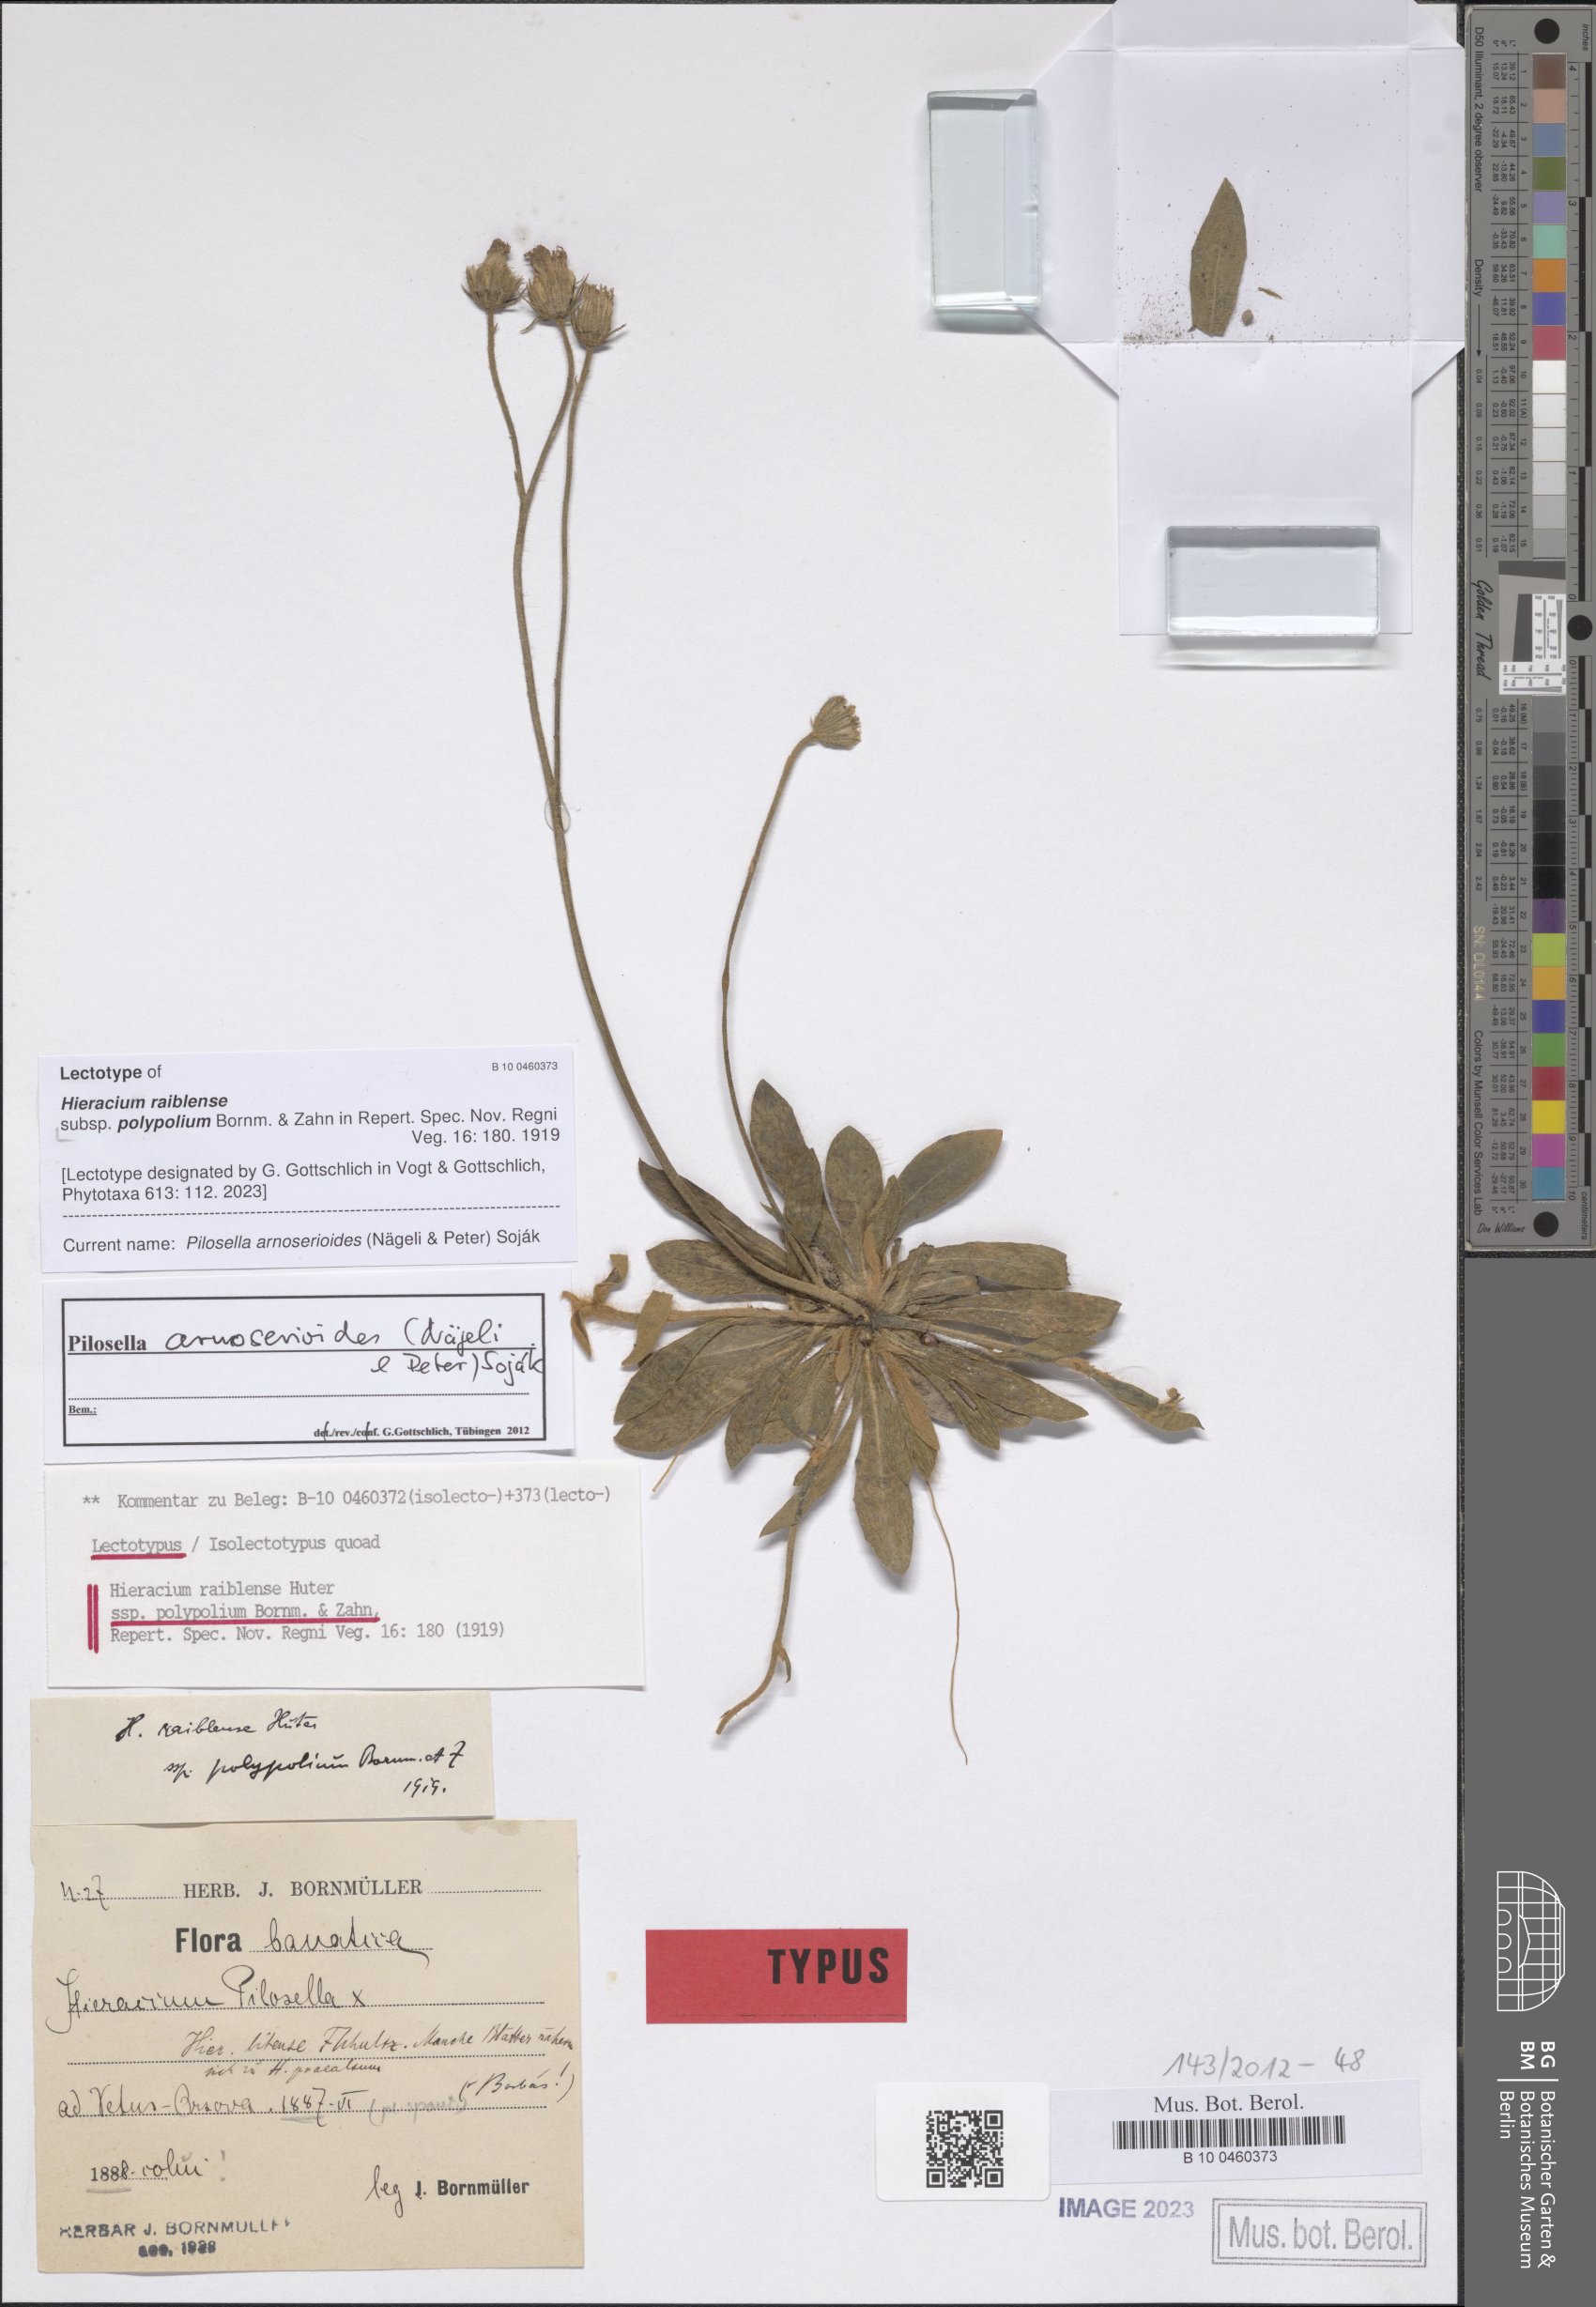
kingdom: Plantae
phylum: Tracheophyta
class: Magnoliopsida
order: Asterales
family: Asteraceae
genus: Pilosella
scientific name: Pilosella
